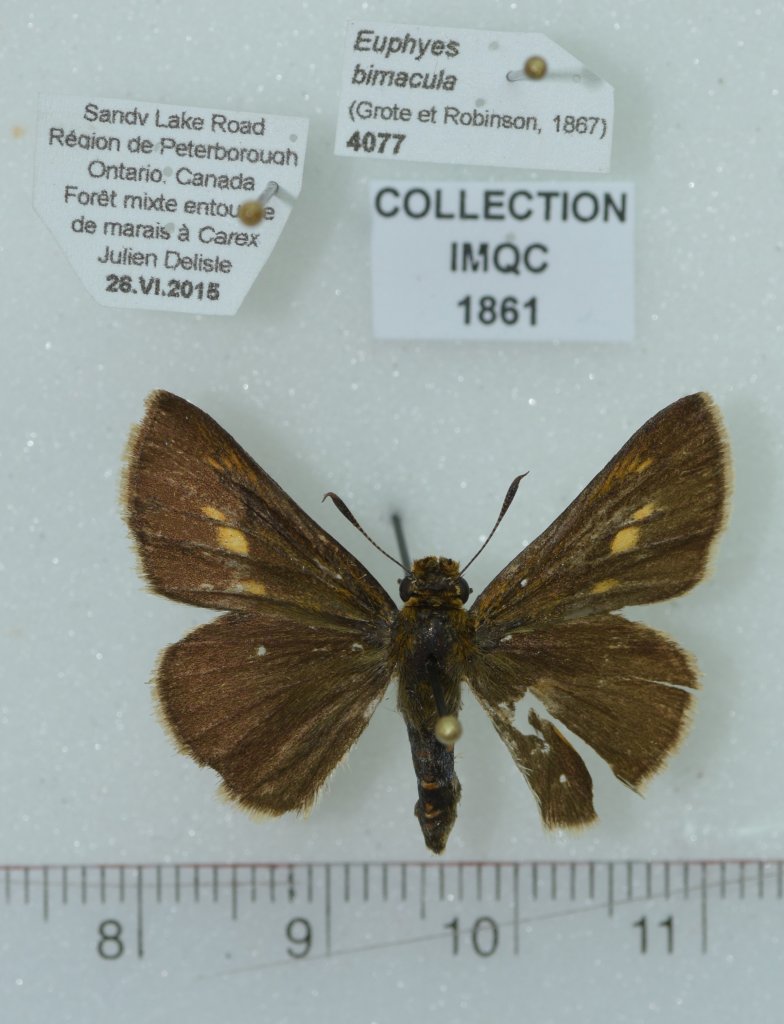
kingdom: Animalia
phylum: Arthropoda
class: Insecta
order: Lepidoptera
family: Hesperiidae
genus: Euphyes
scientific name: Euphyes bimacula
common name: Two-spotted Skipper
